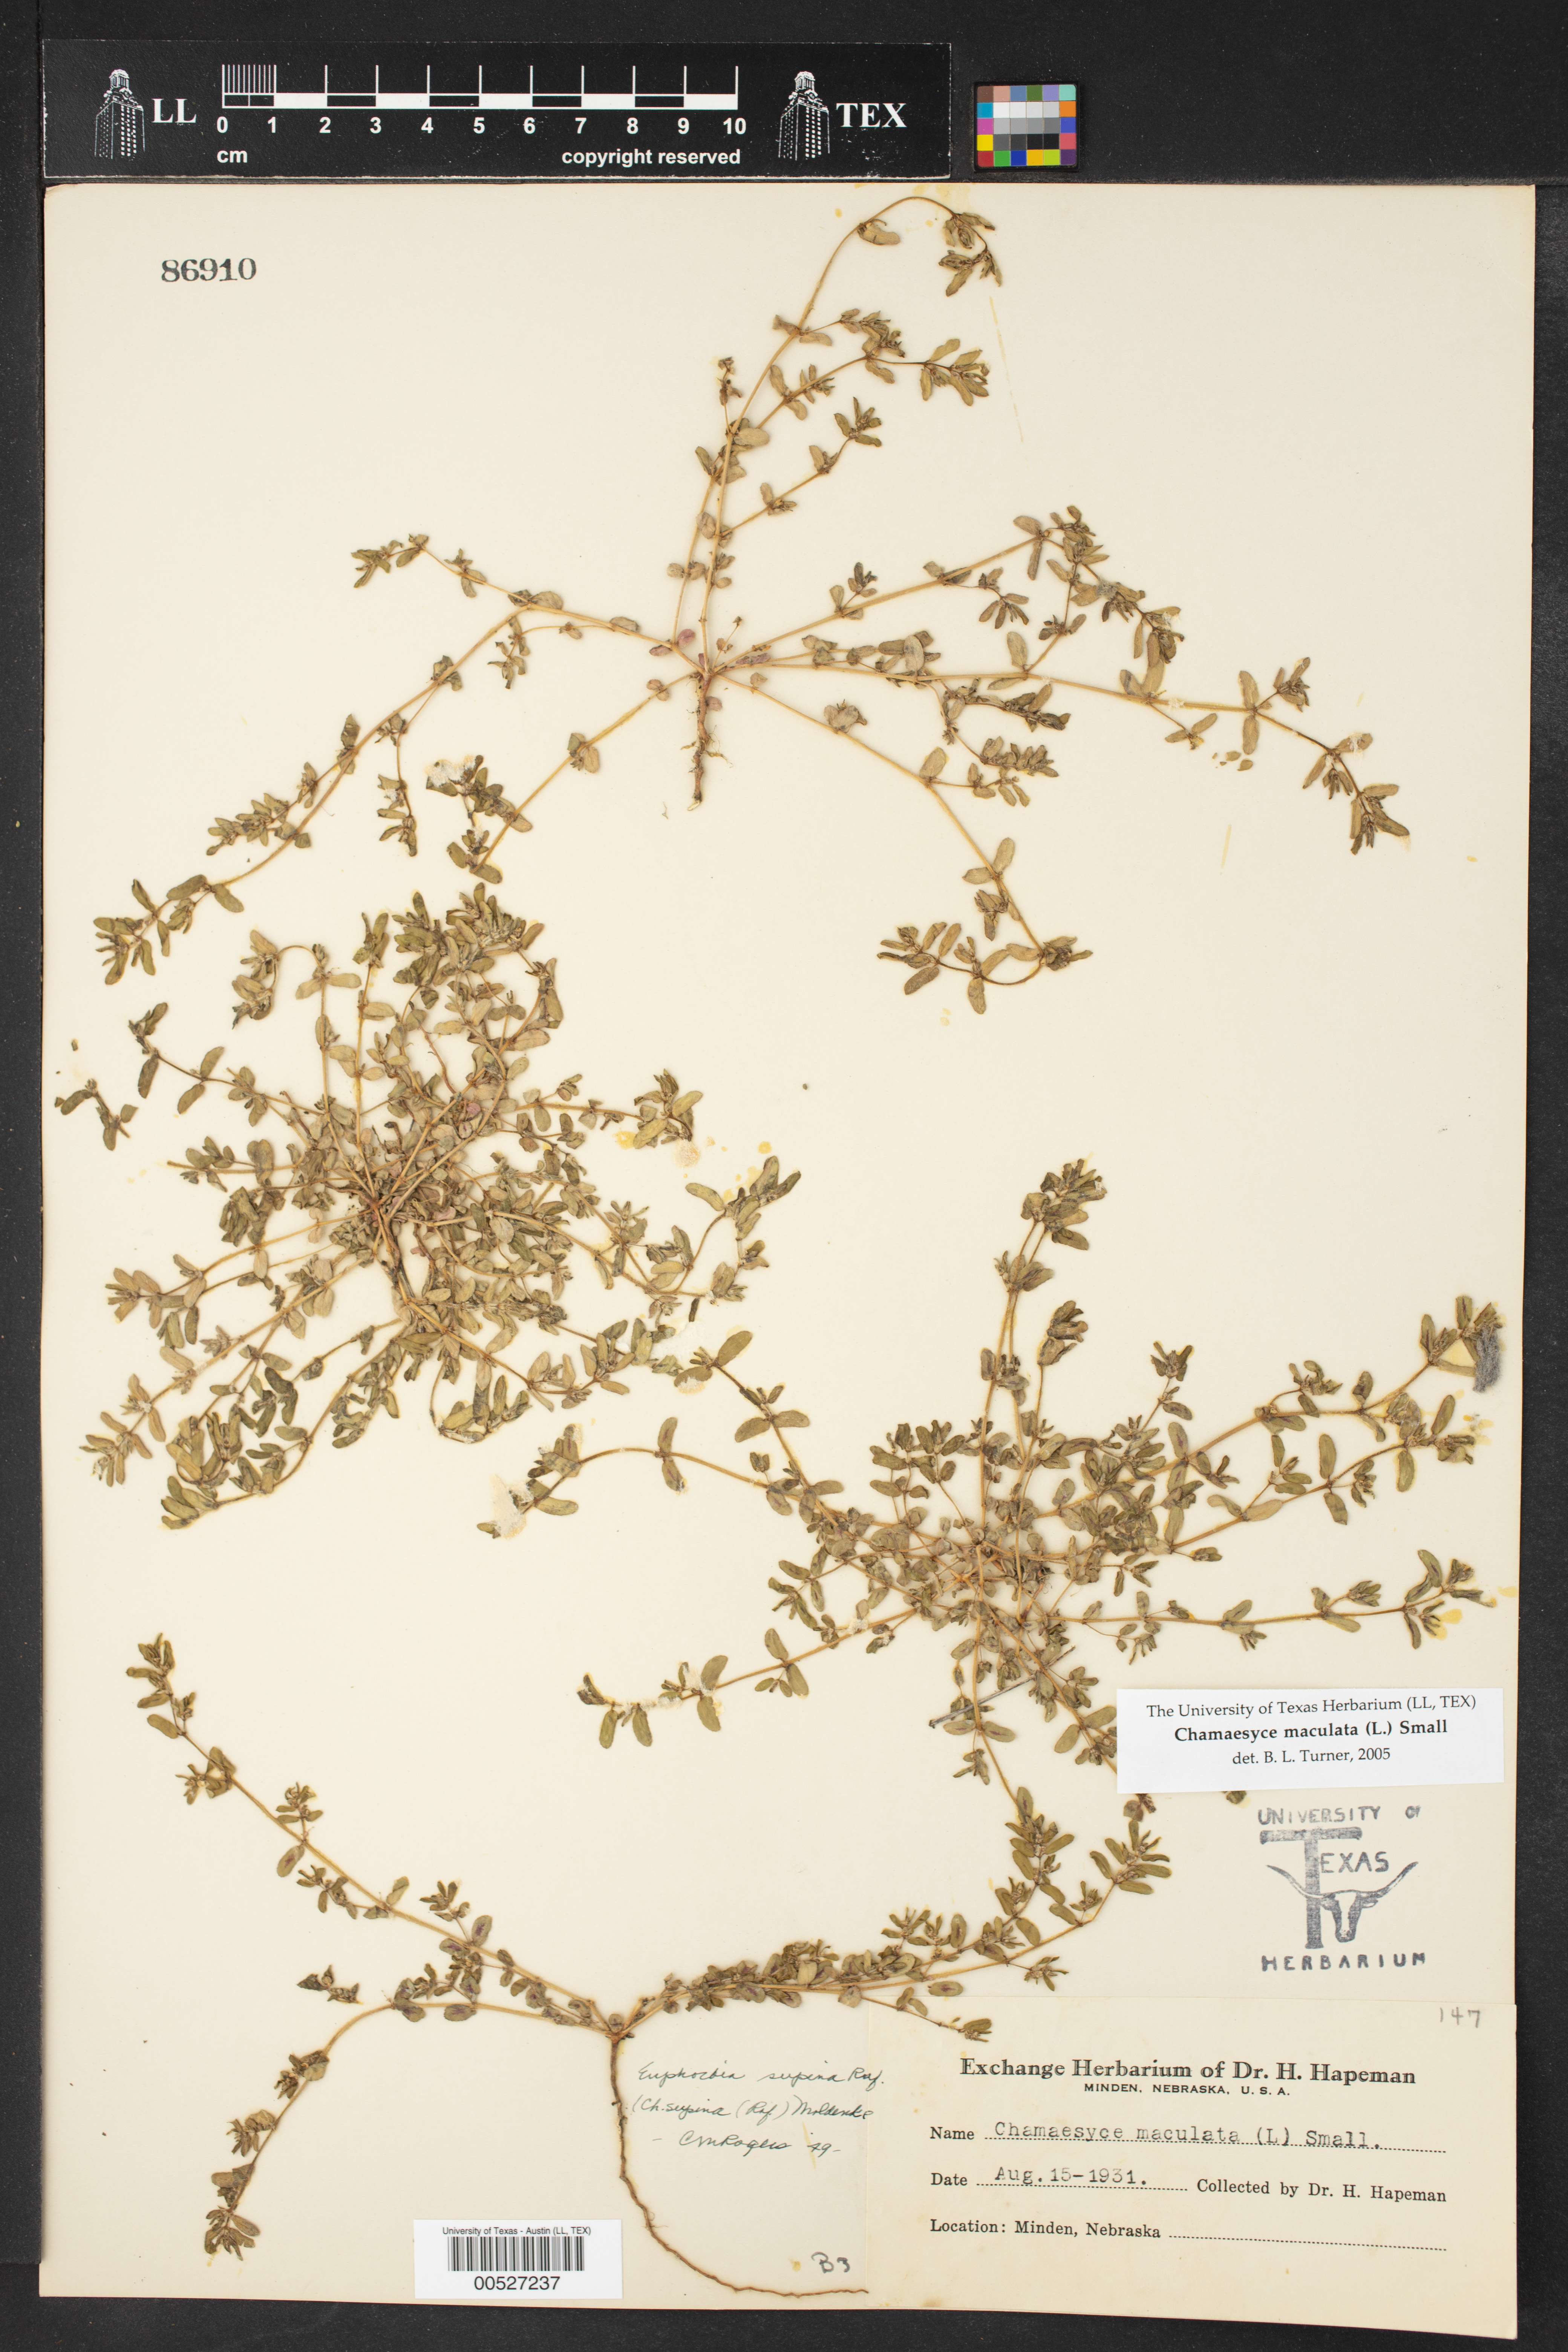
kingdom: Plantae
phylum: Tracheophyta
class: Magnoliopsida
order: Malpighiales
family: Euphorbiaceae
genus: Euphorbia
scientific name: Euphorbia maculata
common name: Spotted spurge
